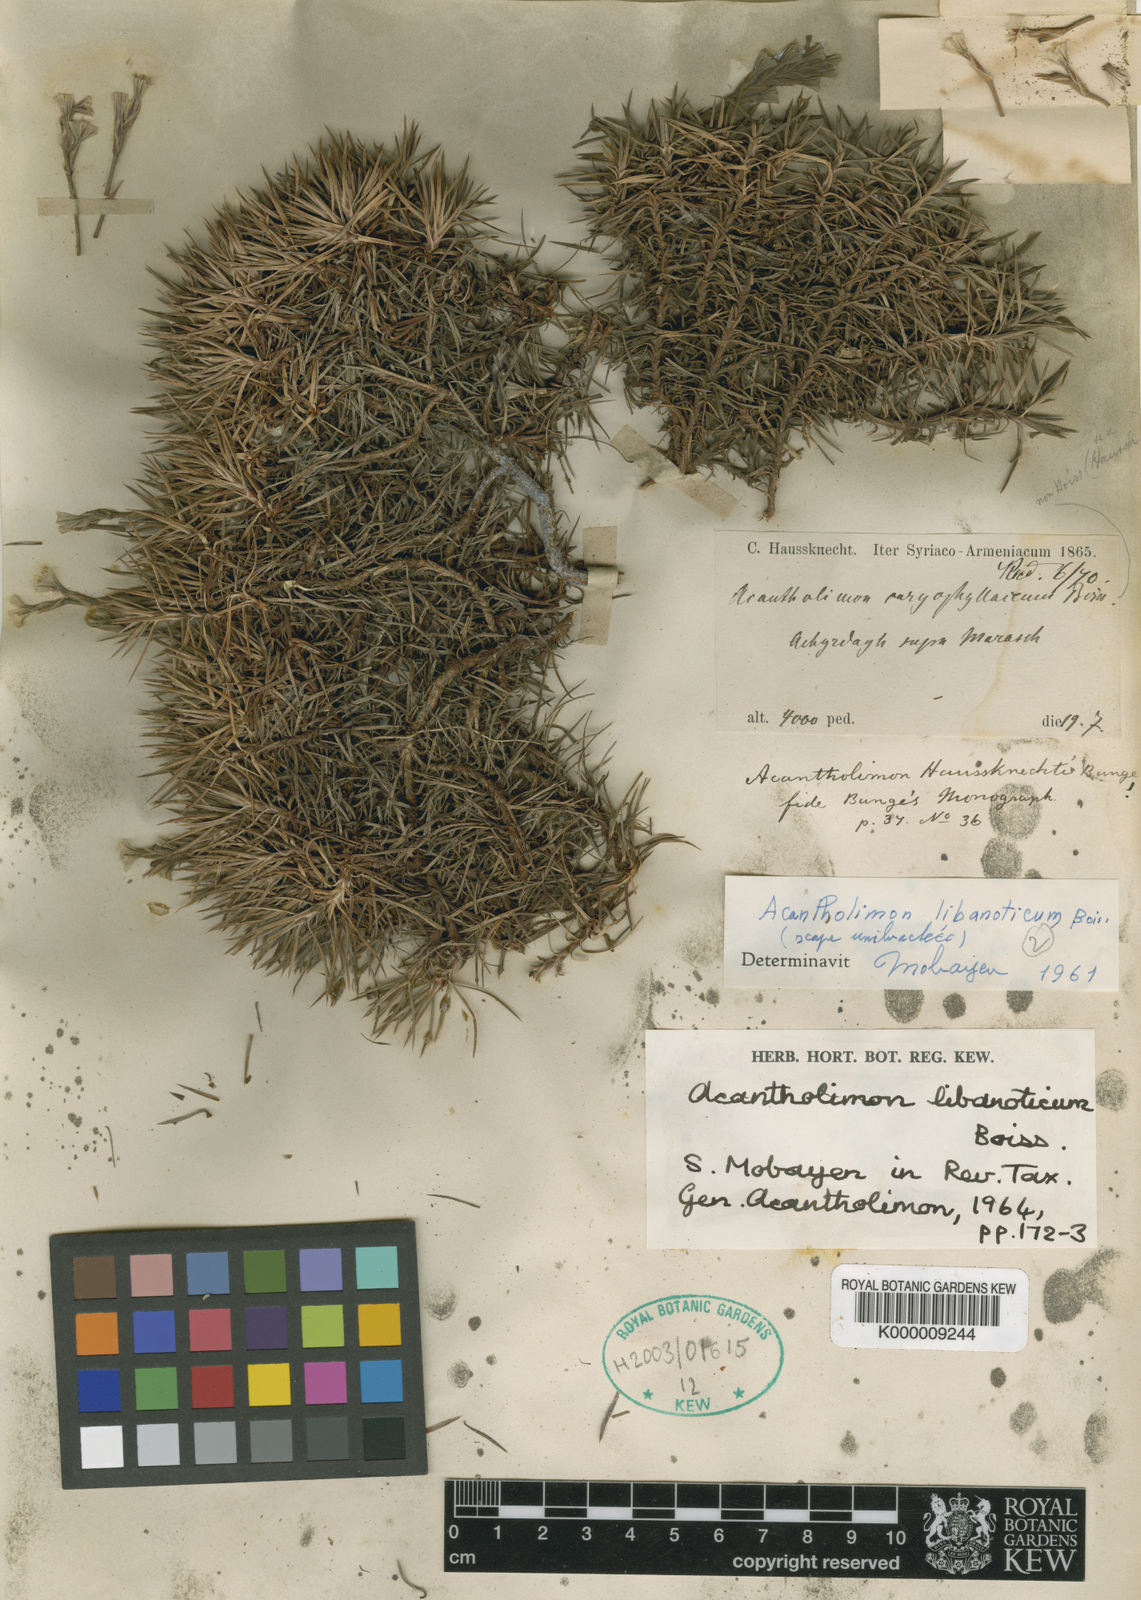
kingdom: Plantae
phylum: Tracheophyta
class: Magnoliopsida
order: Caryophyllales
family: Plumbaginaceae
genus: Acantholimon
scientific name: Acantholimon libanoticum
